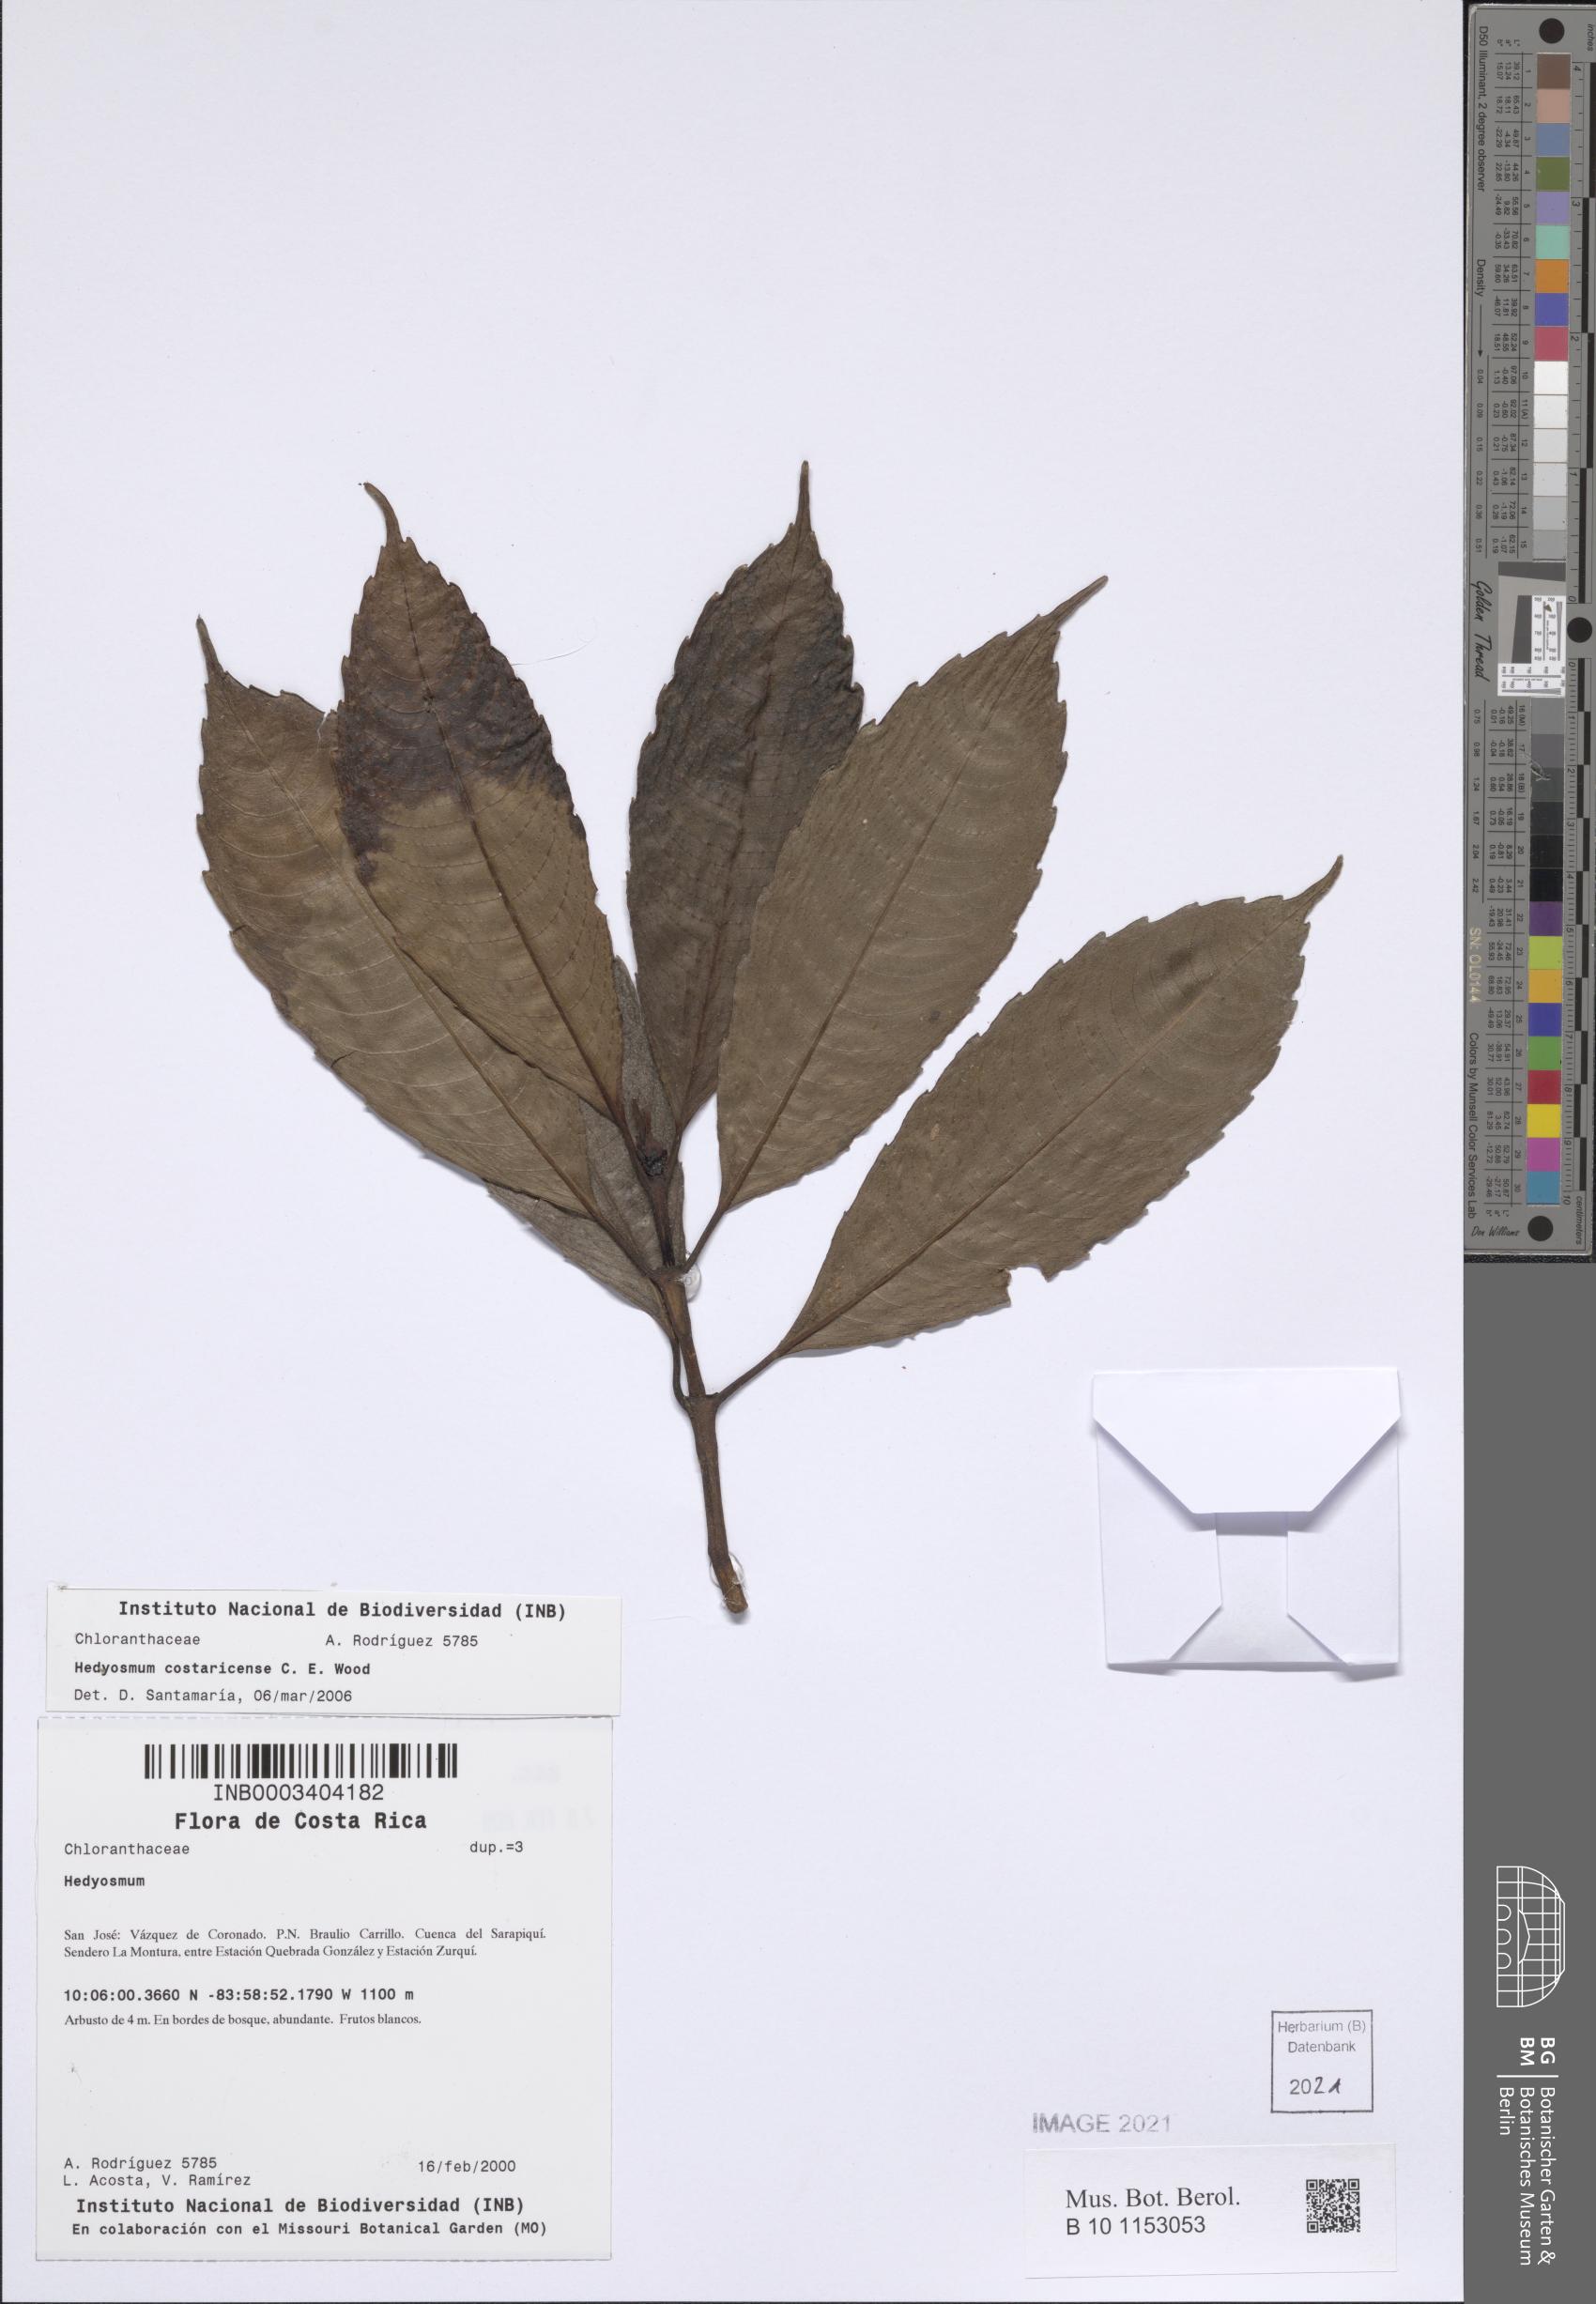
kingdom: Plantae
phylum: Tracheophyta
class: Magnoliopsida
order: Chloranthales
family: Chloranthaceae
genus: Hedyosmum
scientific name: Hedyosmum costaricense
